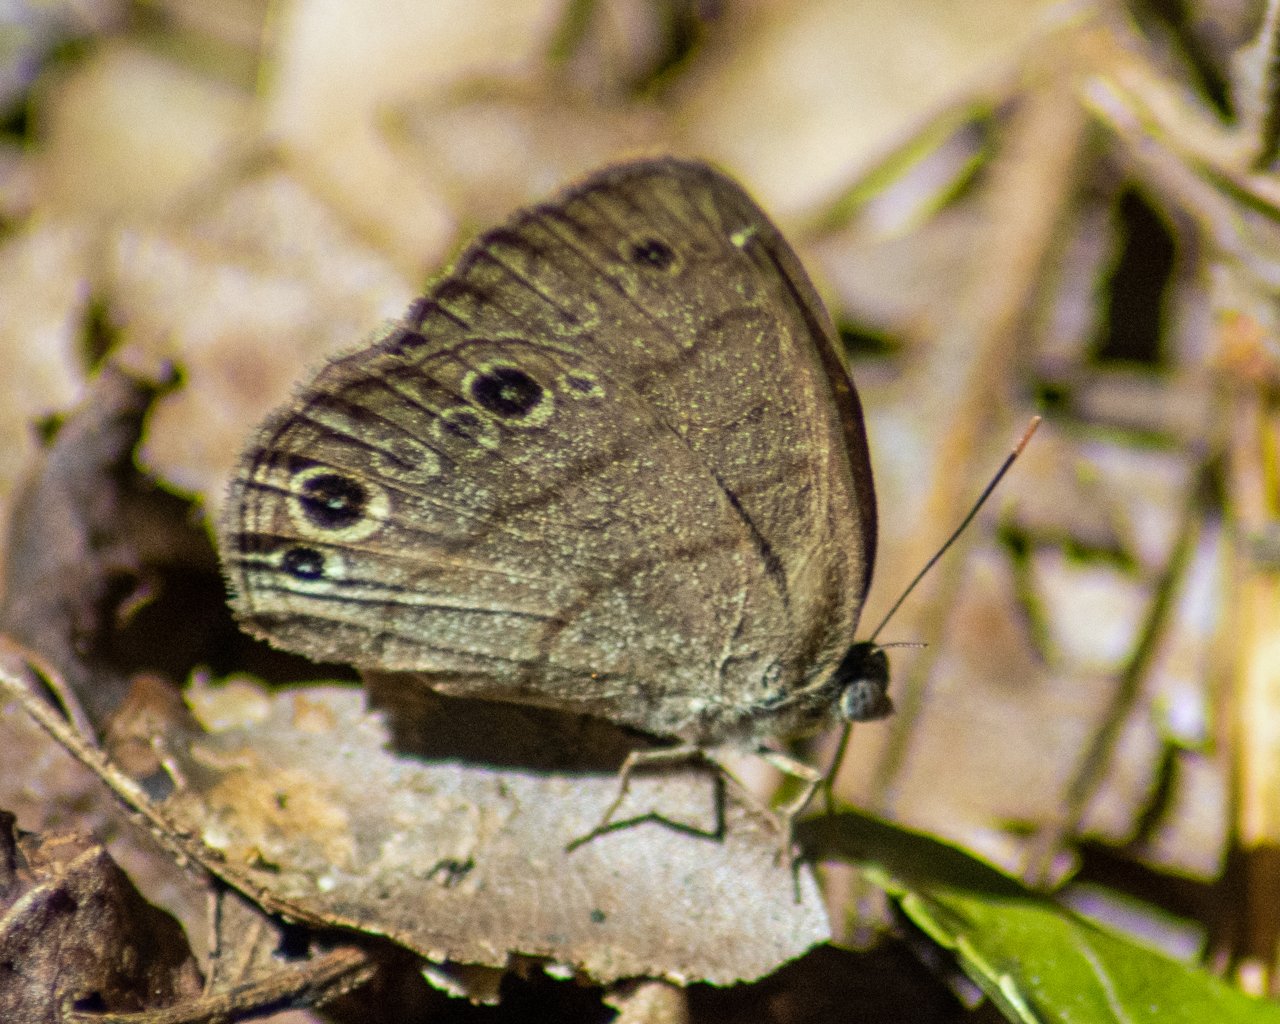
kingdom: Animalia
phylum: Arthropoda
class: Insecta
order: Lepidoptera
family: Nymphalidae
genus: Hermeuptychia
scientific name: Hermeuptychia intricata
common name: Intricate Satyr
